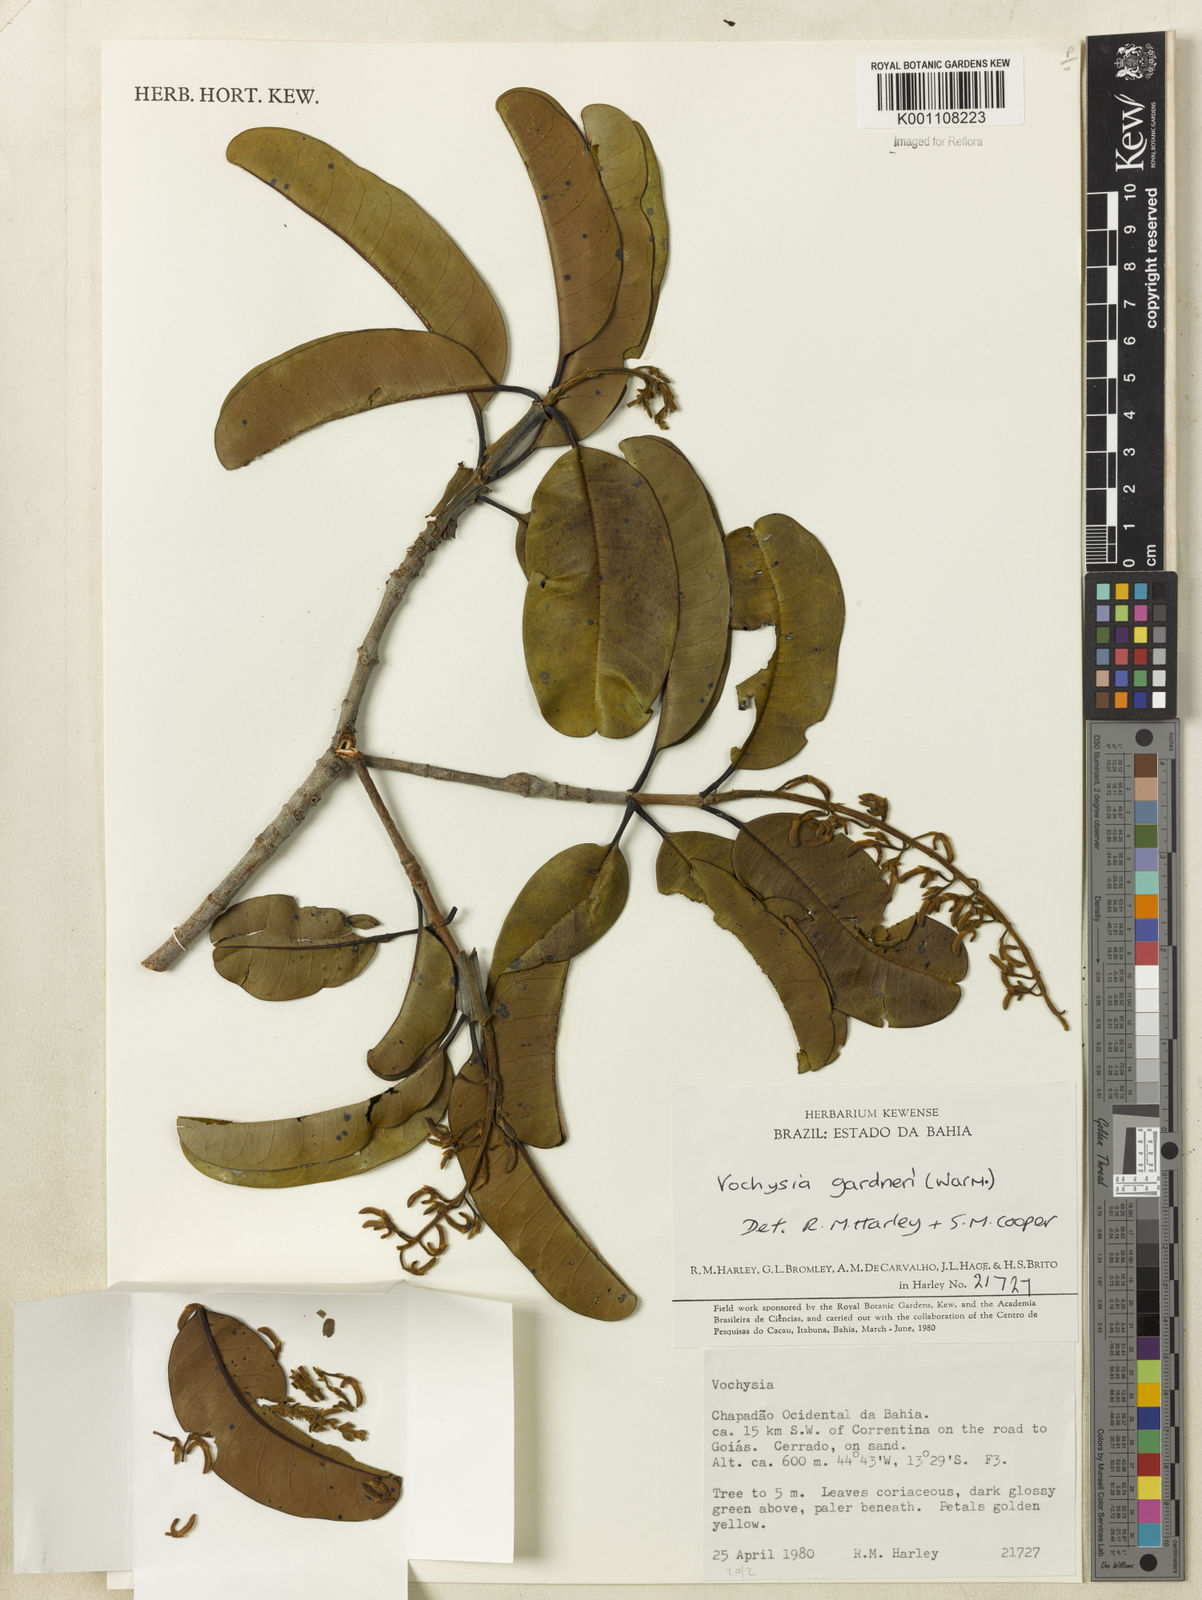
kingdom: Plantae
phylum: Tracheophyta
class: Magnoliopsida
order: Myrtales
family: Vochysiaceae
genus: Vochysia
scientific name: Vochysia gardneri
